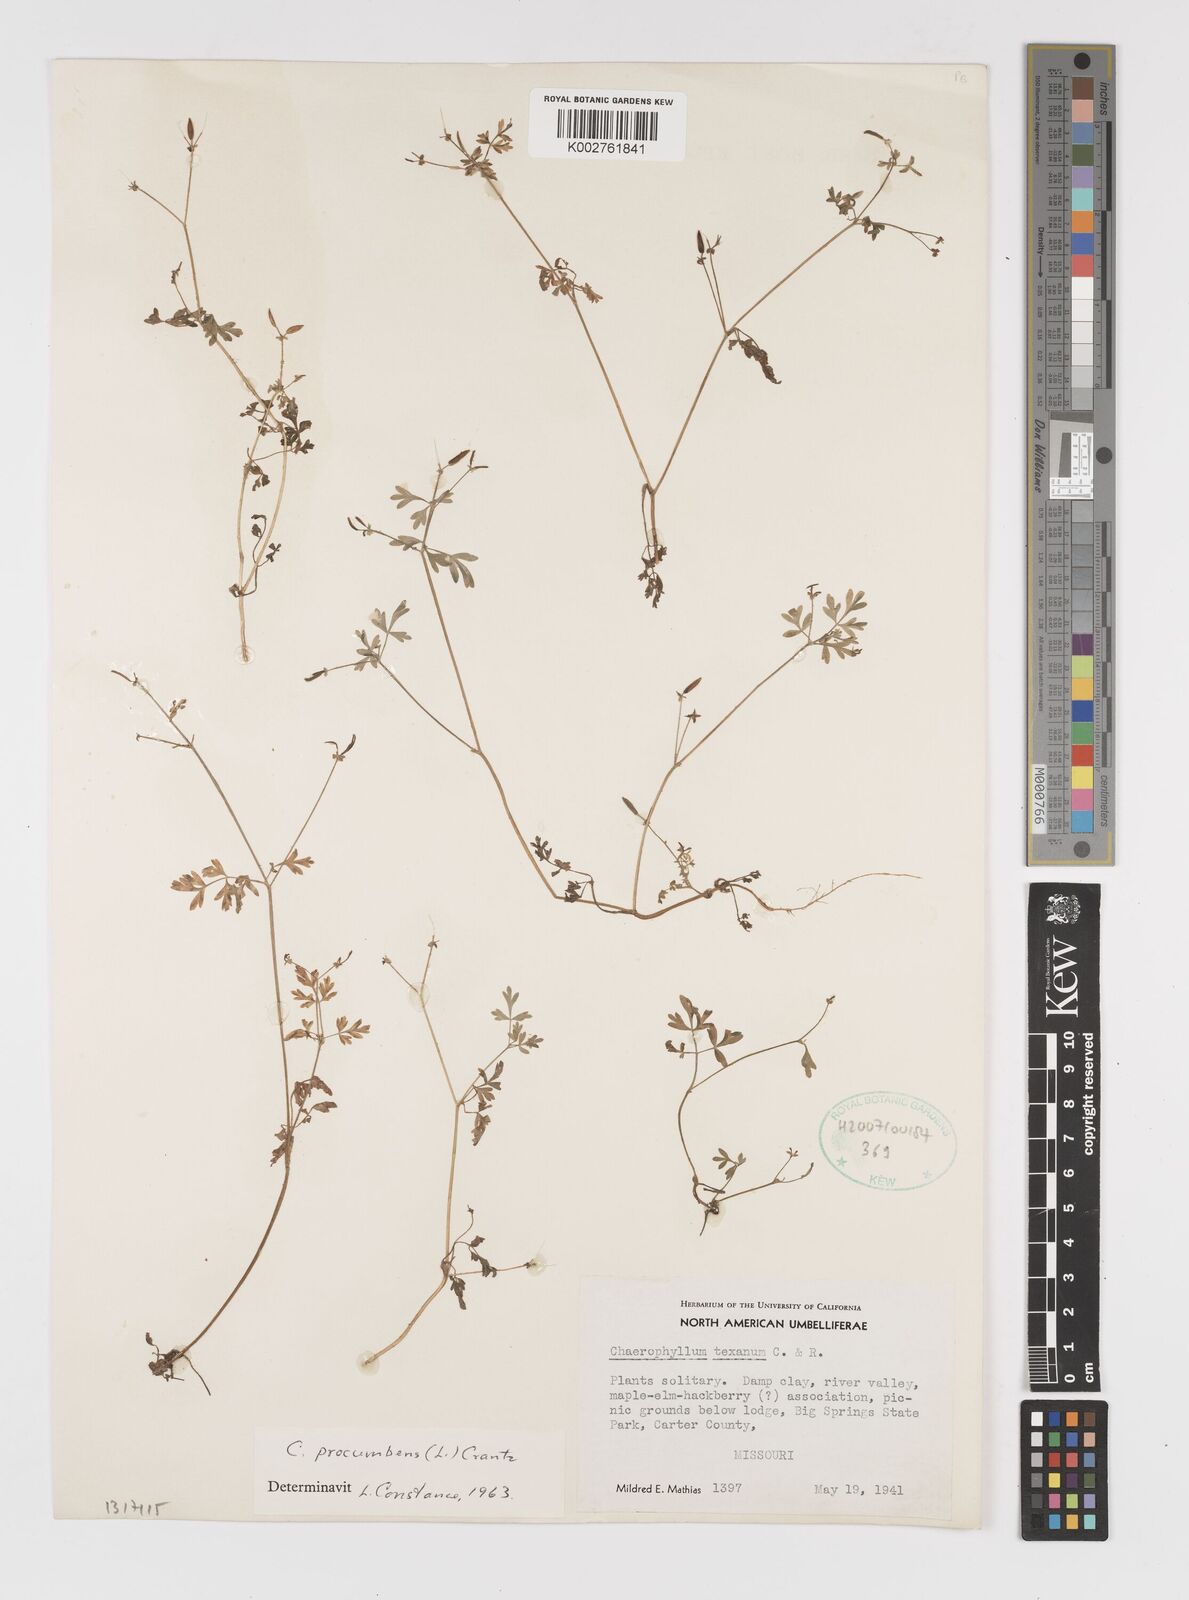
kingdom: Plantae
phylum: Tracheophyta
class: Magnoliopsida
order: Apiales
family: Apiaceae
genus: Chaerophyllum
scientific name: Chaerophyllum procumbens
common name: Spreading chervil
